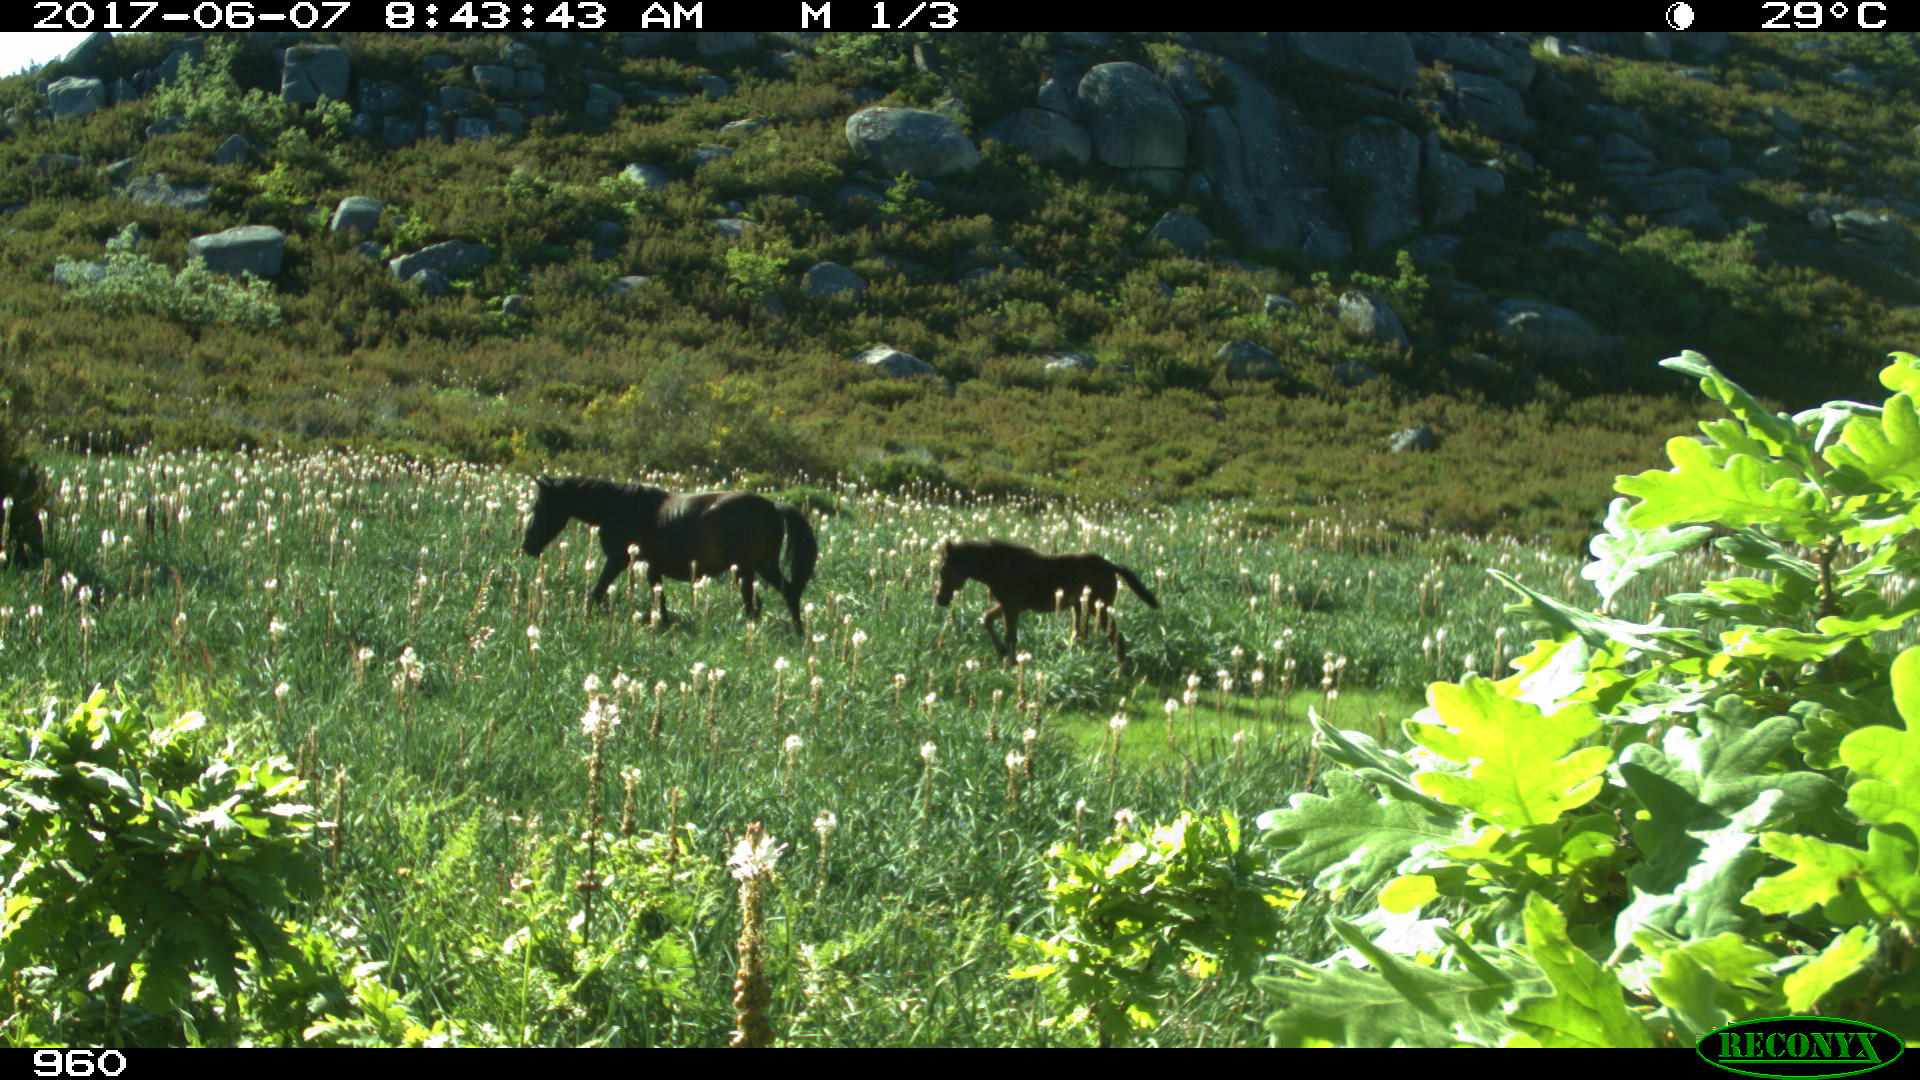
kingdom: Animalia
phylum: Chordata
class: Mammalia
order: Perissodactyla
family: Equidae
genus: Equus
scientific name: Equus caballus
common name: Horse
